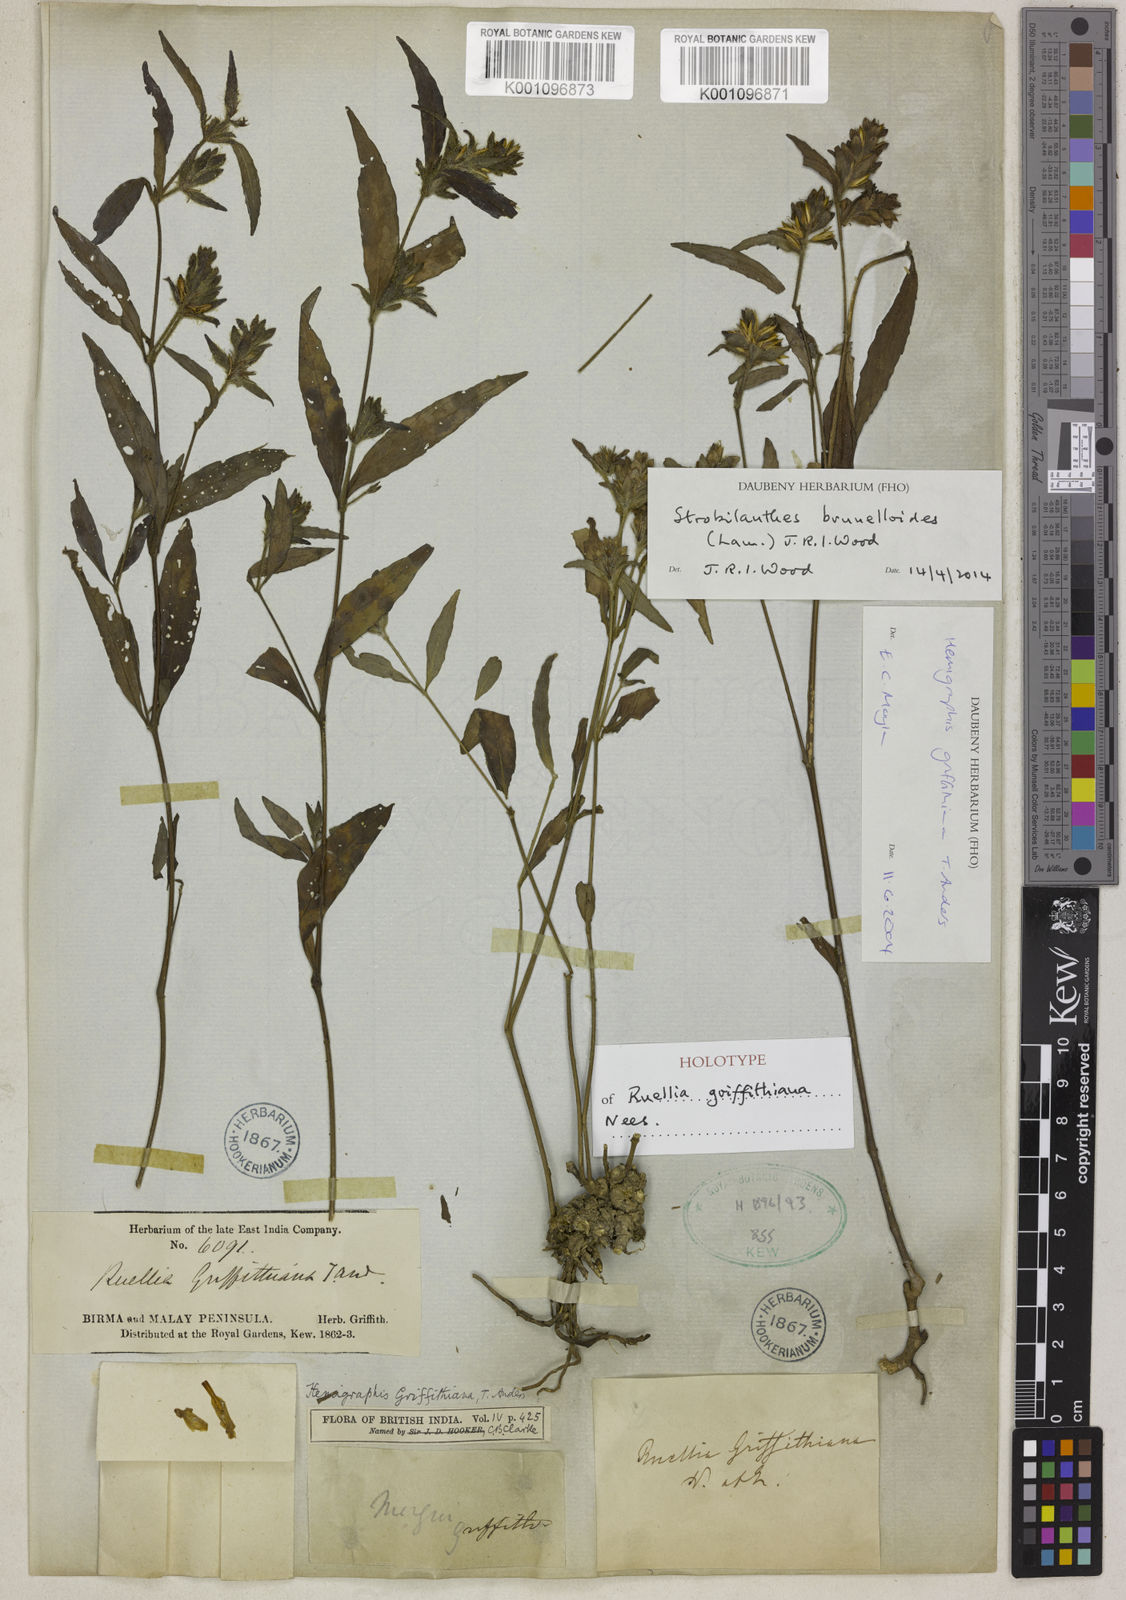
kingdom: Plantae
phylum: Tracheophyta
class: Magnoliopsida
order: Lamiales
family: Acanthaceae
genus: Strobilanthes
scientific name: Strobilanthes brunelloides
